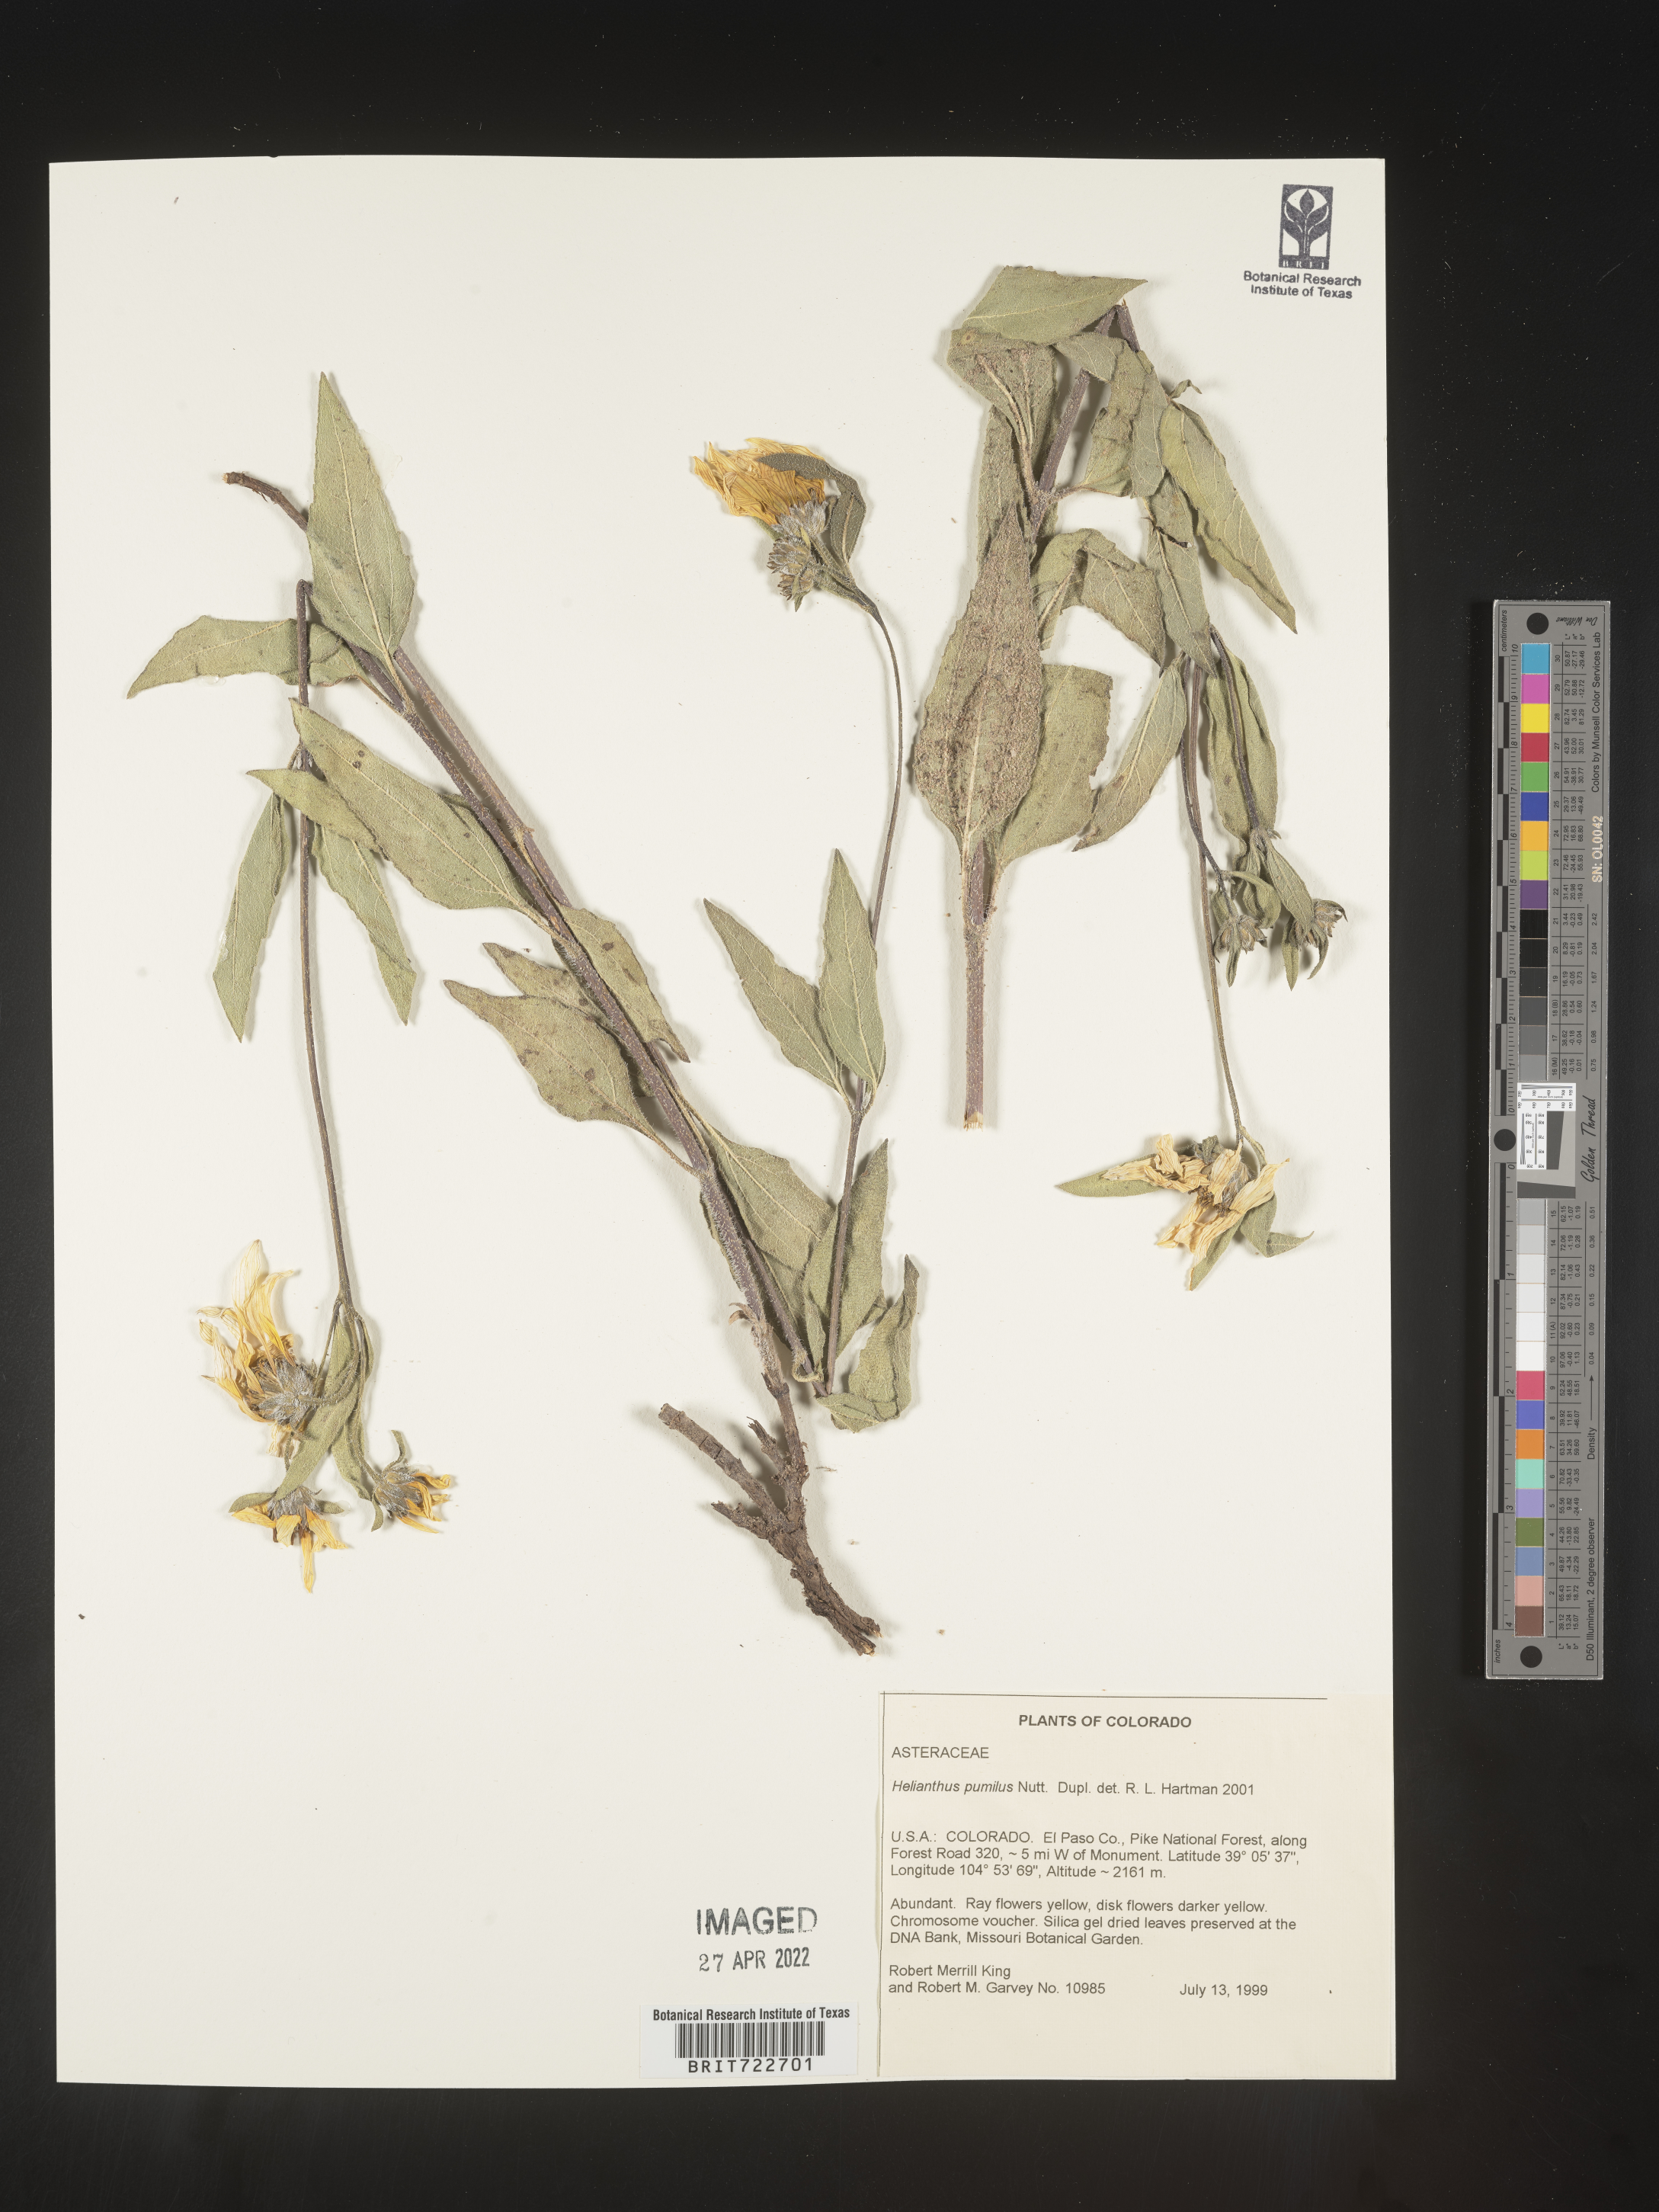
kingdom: Plantae
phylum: Tracheophyta
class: Magnoliopsida
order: Asterales
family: Asteraceae
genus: Helianthus
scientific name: Helianthus pumilus
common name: Dwarf sunflower
